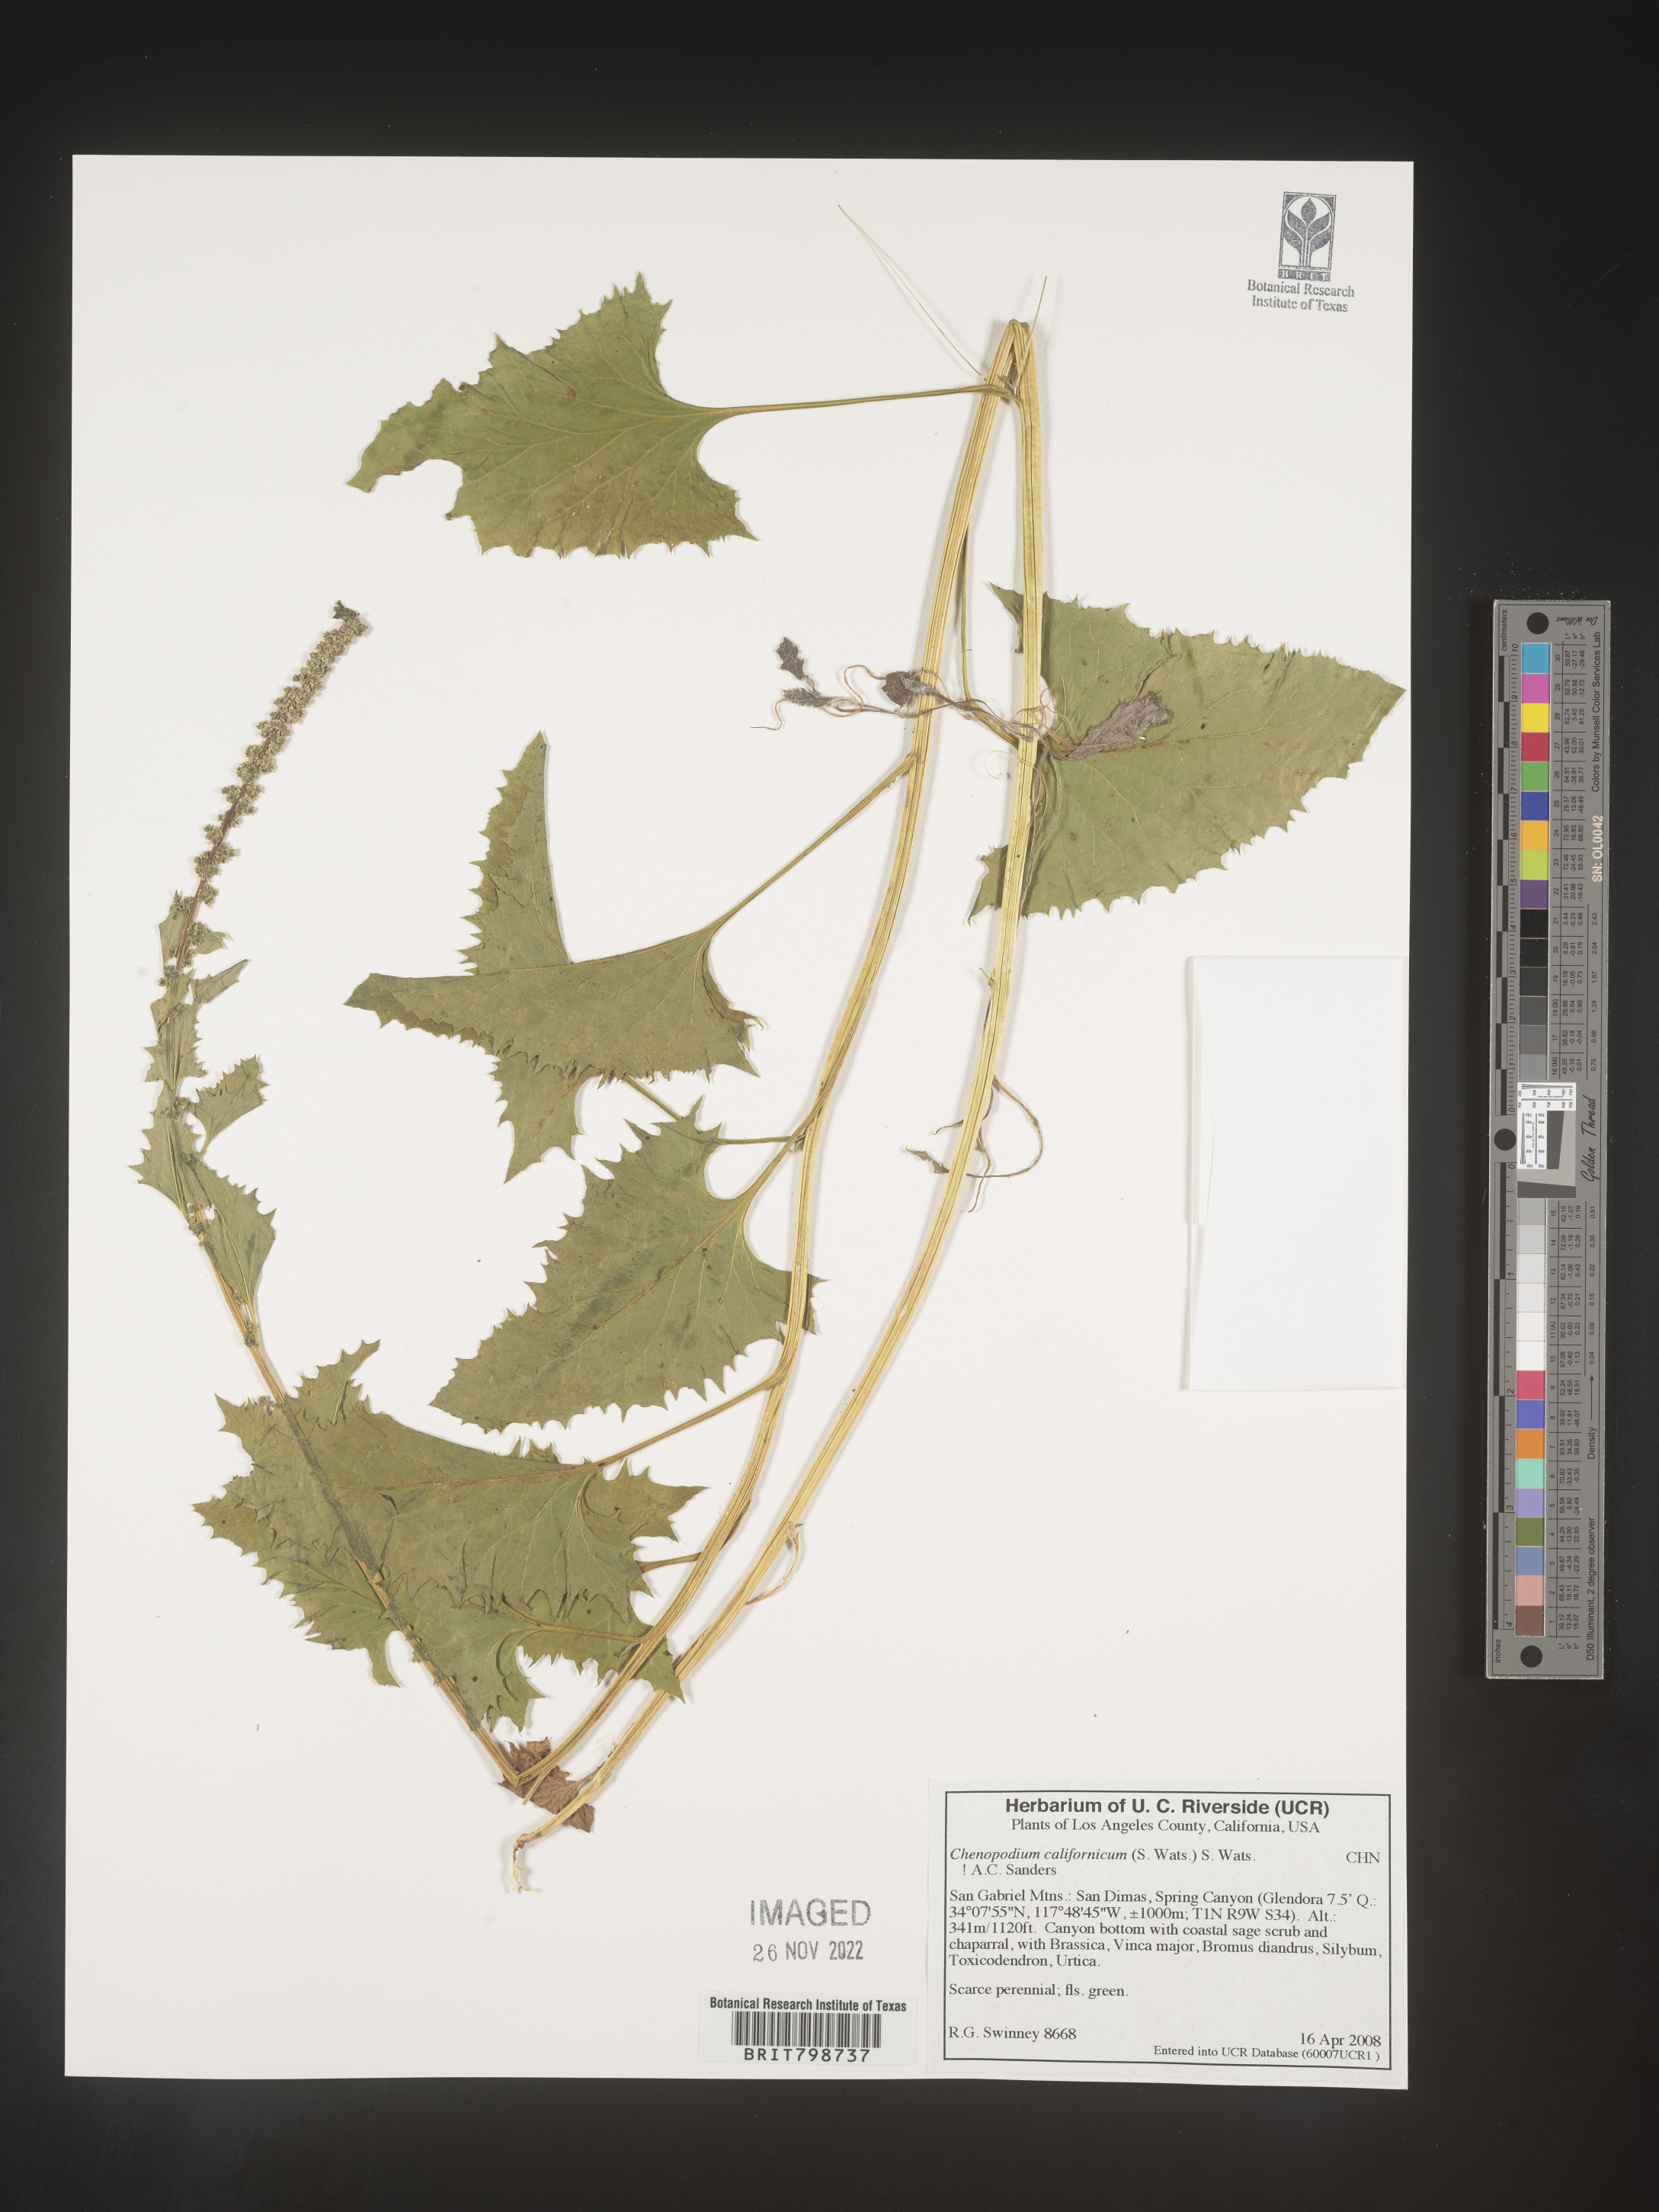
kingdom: Plantae
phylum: Tracheophyta
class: Magnoliopsida
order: Caryophyllales
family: Amaranthaceae
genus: Blitum
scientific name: Blitum californicum
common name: California goosefoot
